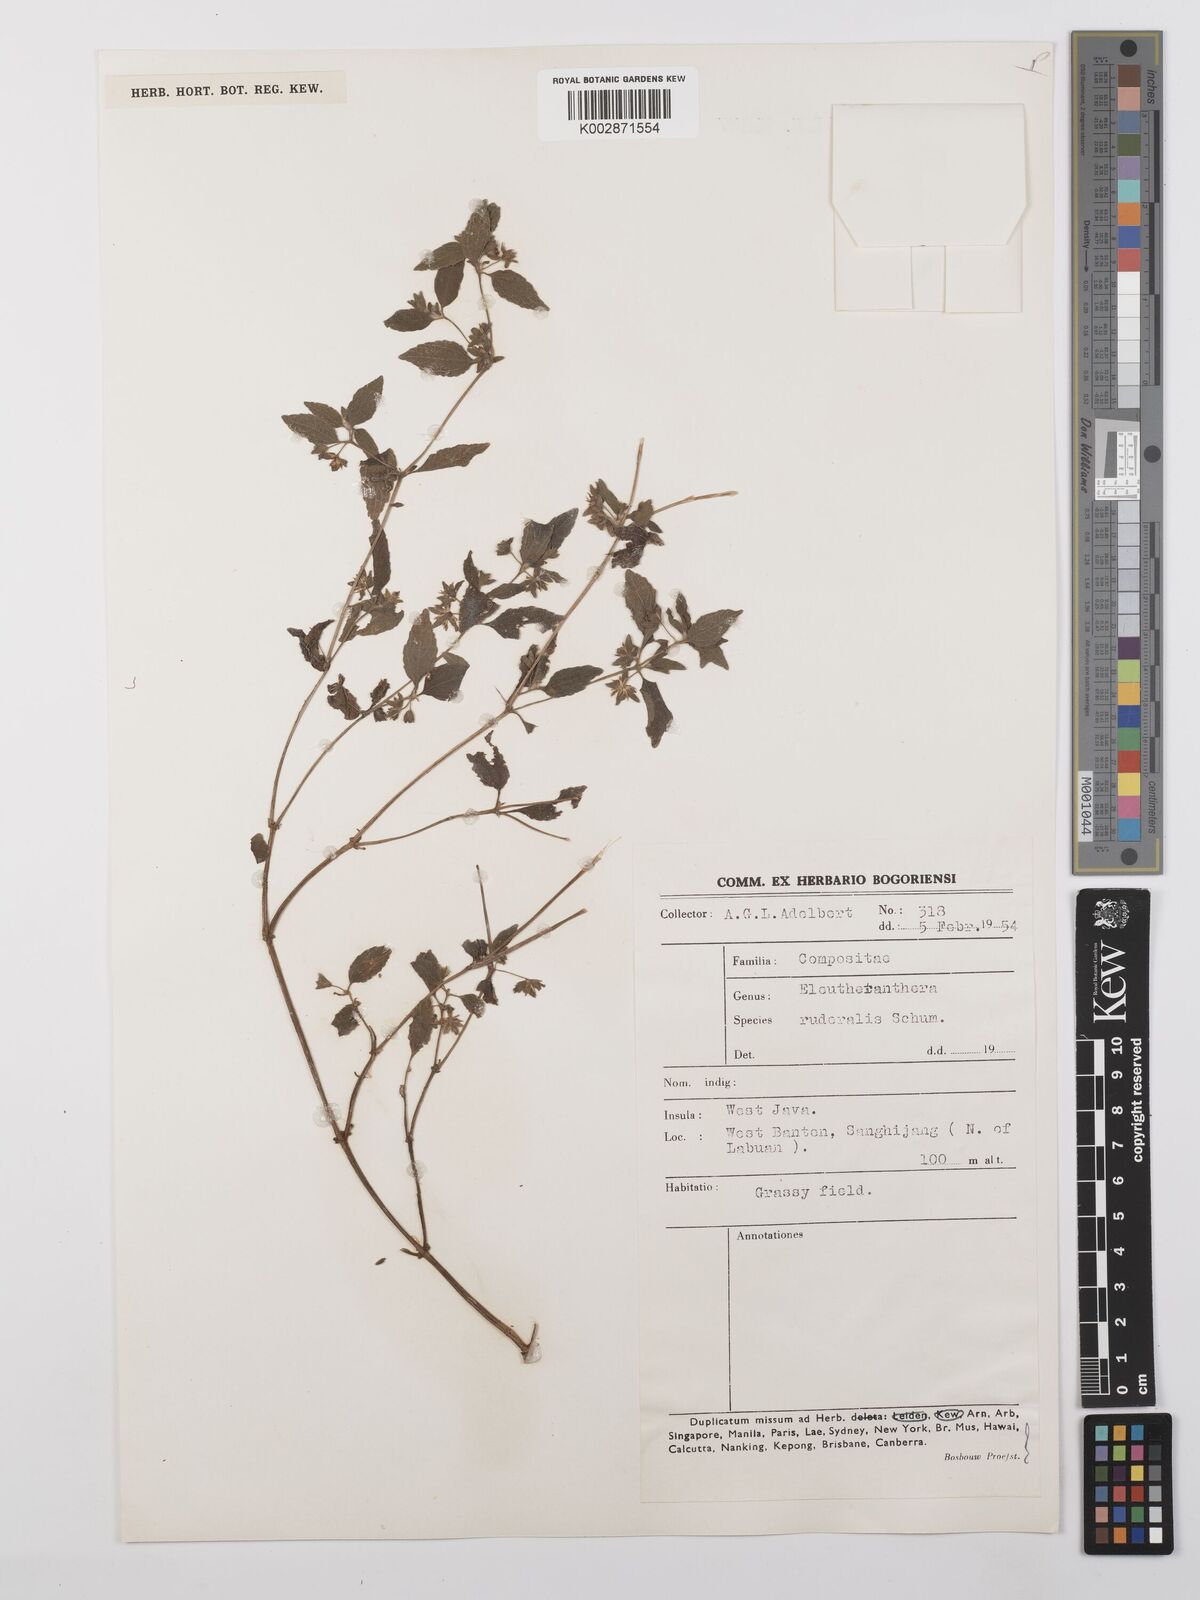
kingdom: Plantae
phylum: Tracheophyta
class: Magnoliopsida
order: Asterales
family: Asteraceae
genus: Eleutheranthera
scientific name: Eleutheranthera ruderalis
